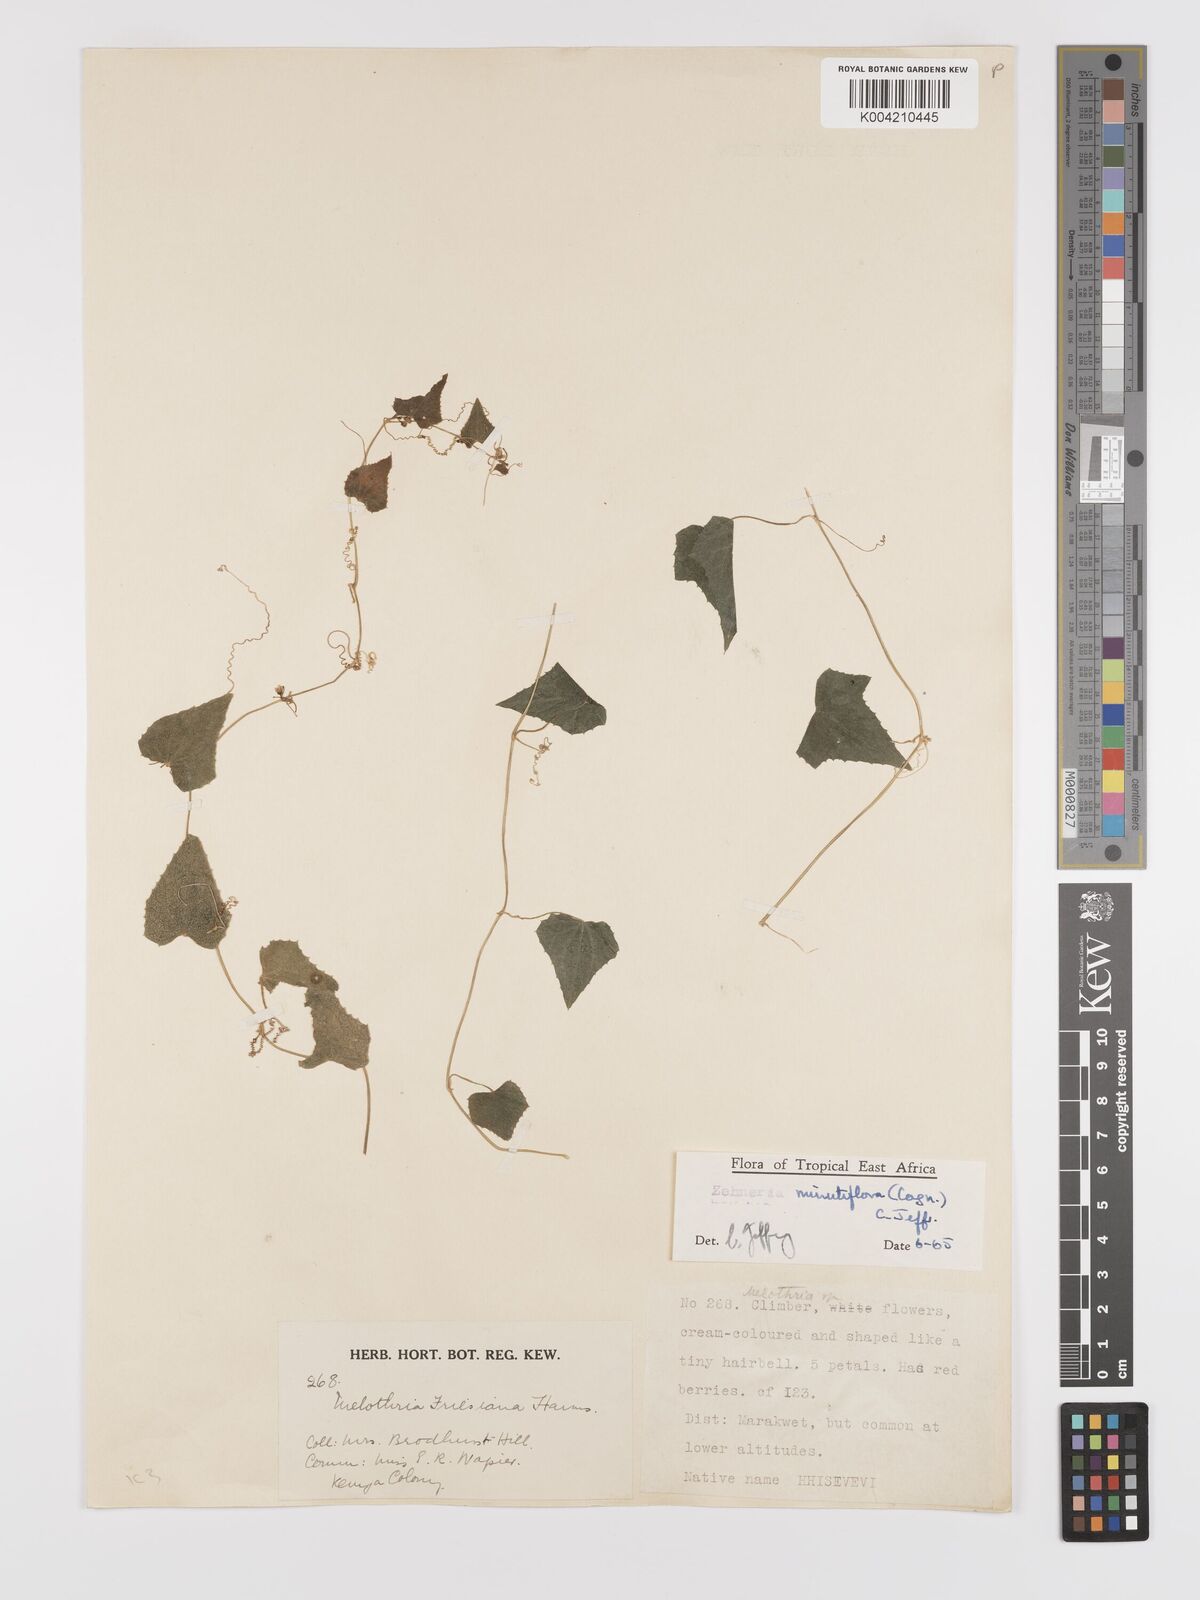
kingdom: Plantae
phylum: Tracheophyta
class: Magnoliopsida
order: Cucurbitales
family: Cucurbitaceae
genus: Zehneria
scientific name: Zehneria minutiflora
